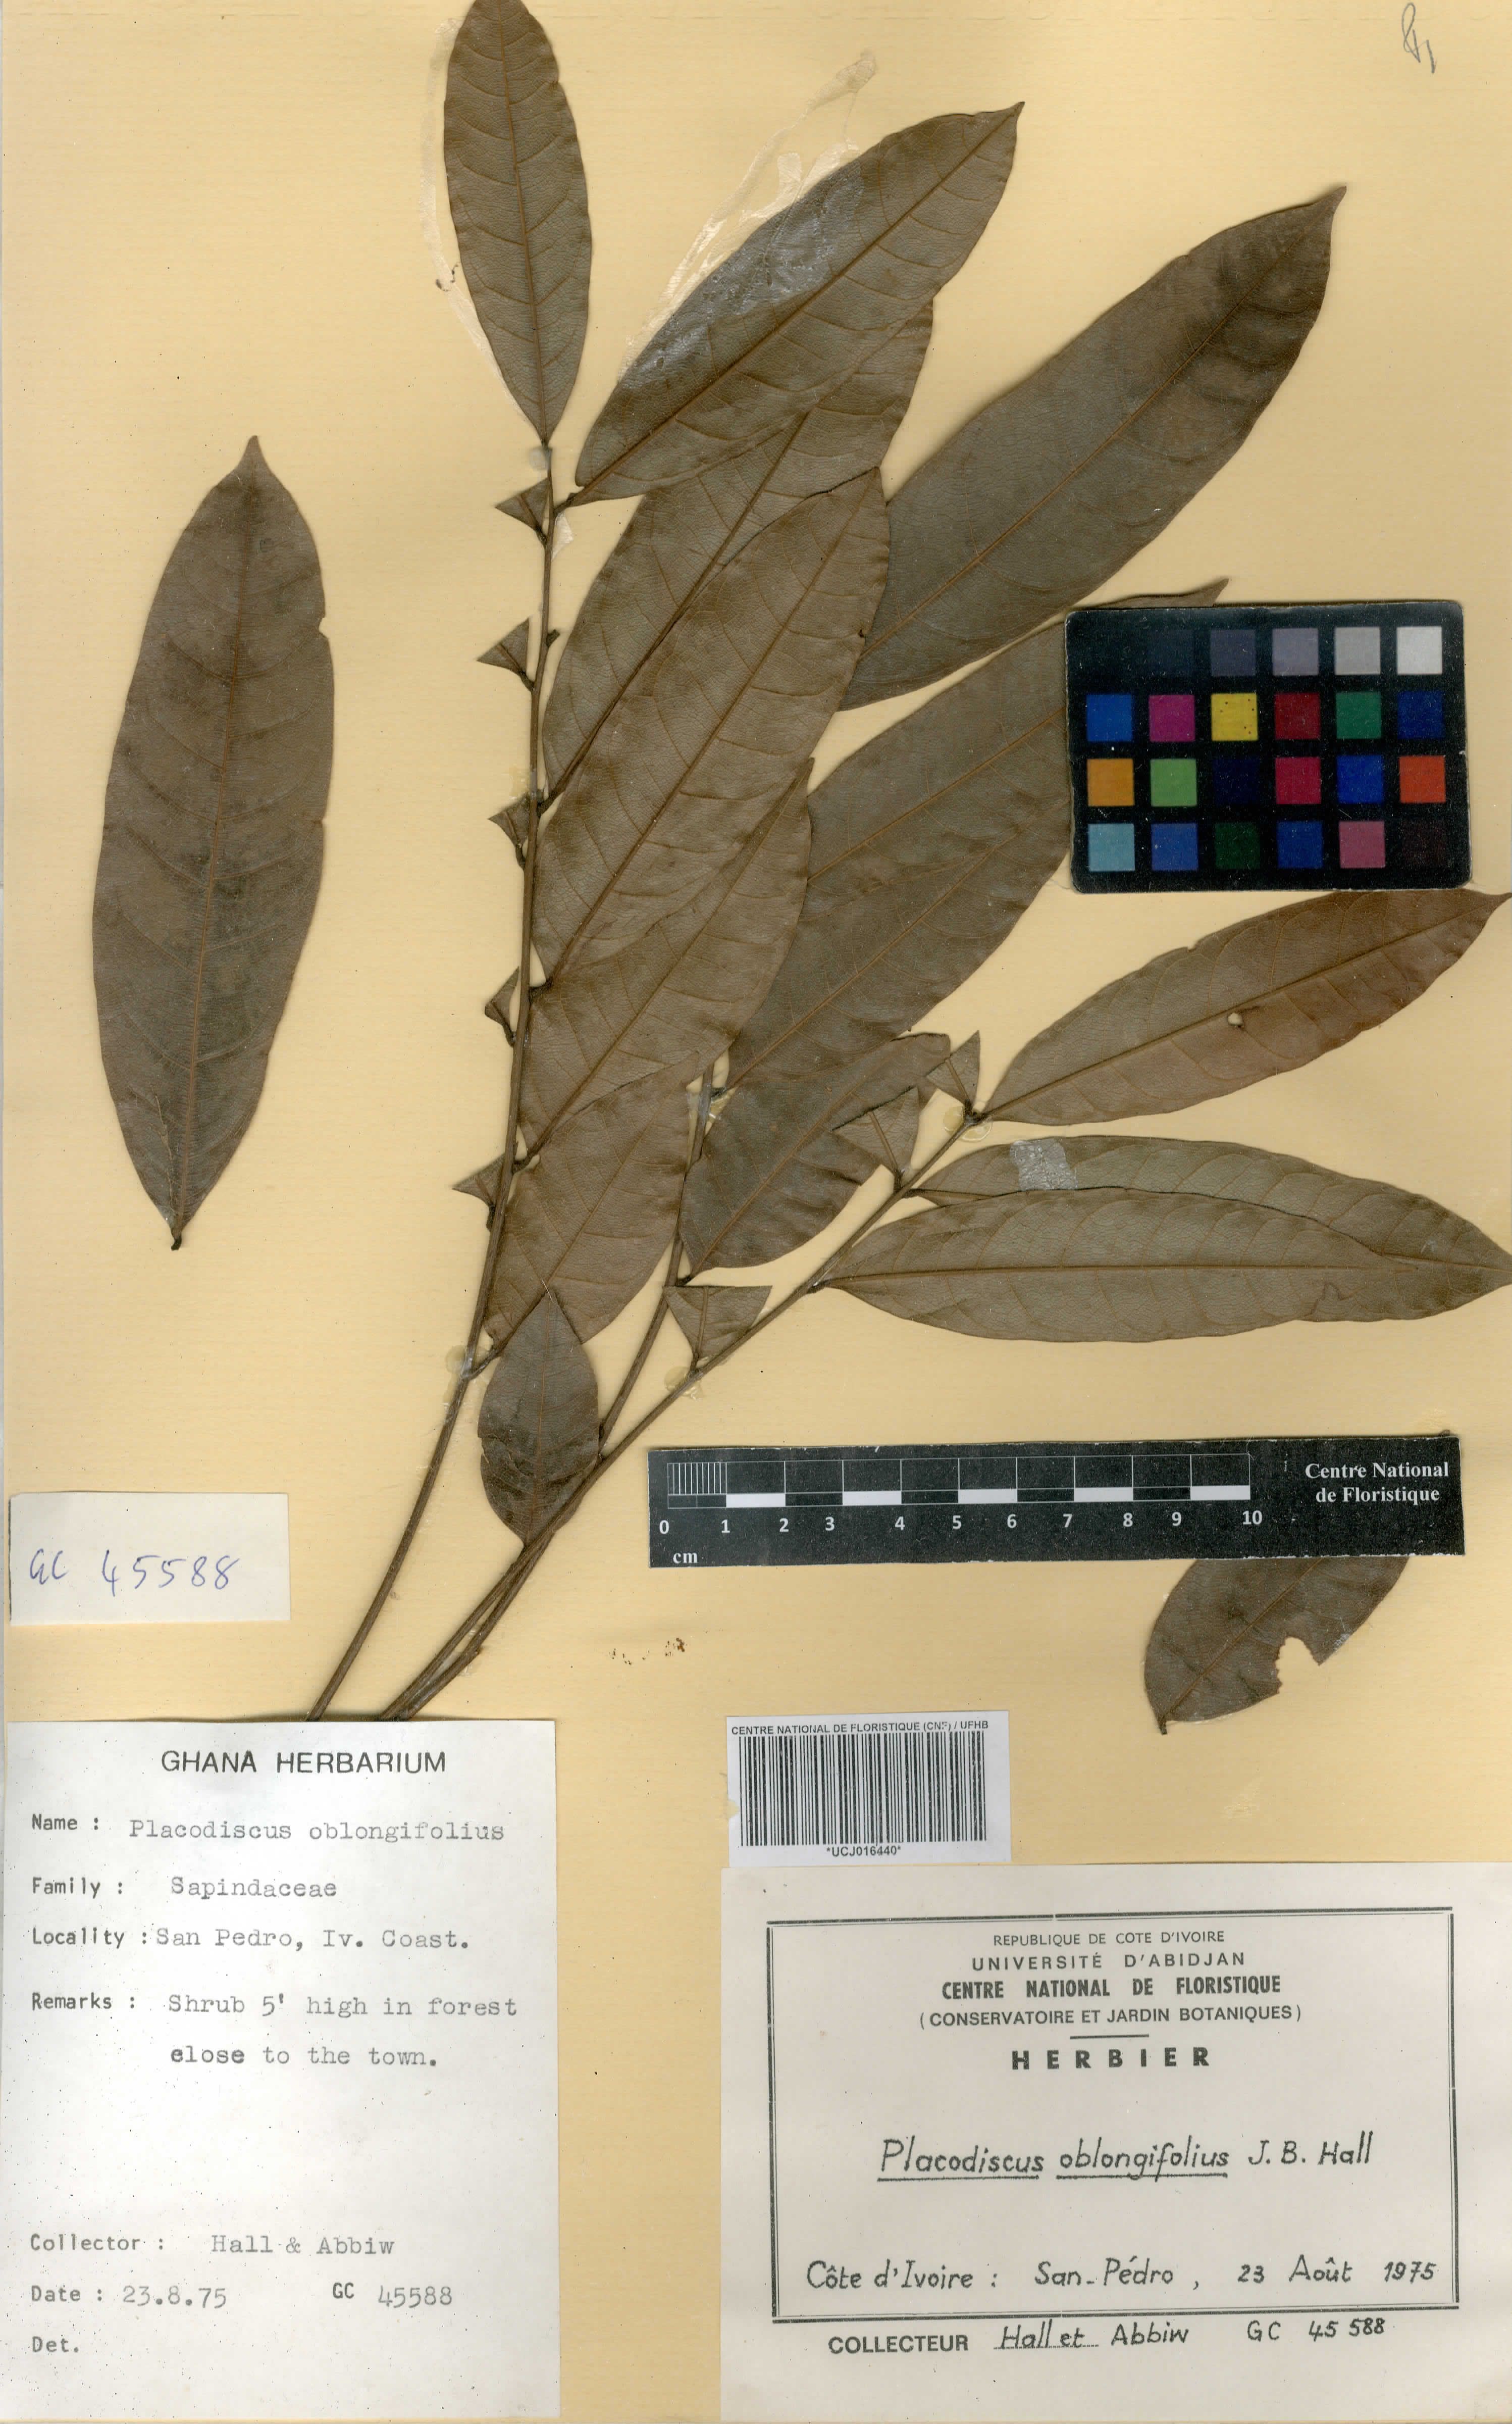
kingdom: Plantae
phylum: Tracheophyta
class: Magnoliopsida
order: Sapindales
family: Sapindaceae
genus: Placodiscus
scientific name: Placodiscus oblongifolius
